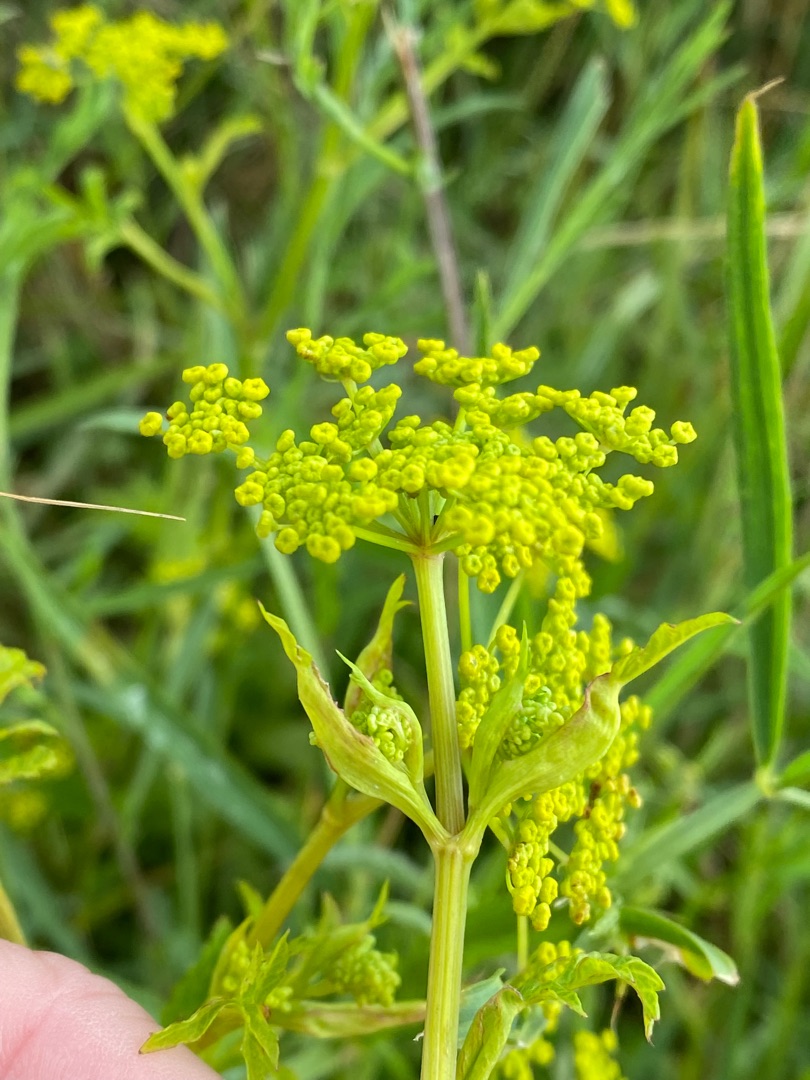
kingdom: Plantae
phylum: Tracheophyta
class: Magnoliopsida
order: Apiales
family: Apiaceae
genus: Pastinaca
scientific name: Pastinaca sativa
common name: Have-pastinak
